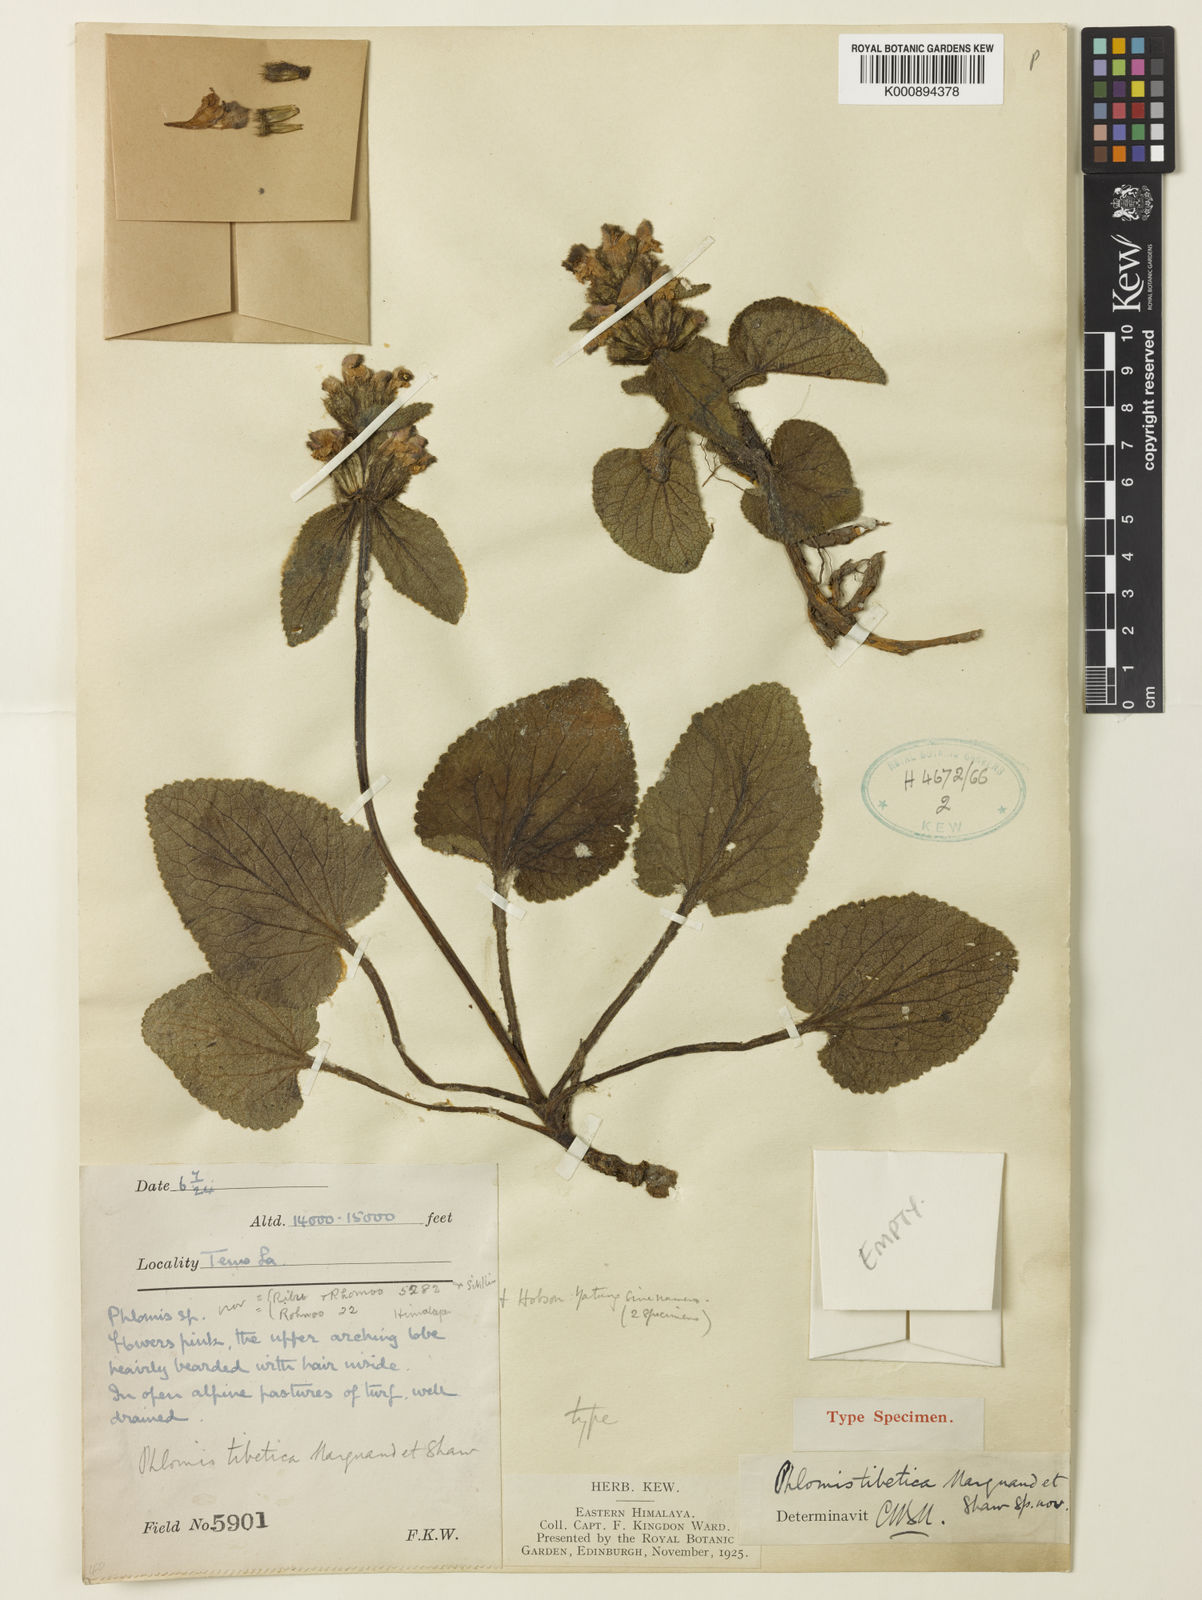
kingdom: Plantae
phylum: Tracheophyta
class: Magnoliopsida
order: Lamiales
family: Lamiaceae
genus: Phlomoides
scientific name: Phlomoides tibetica
